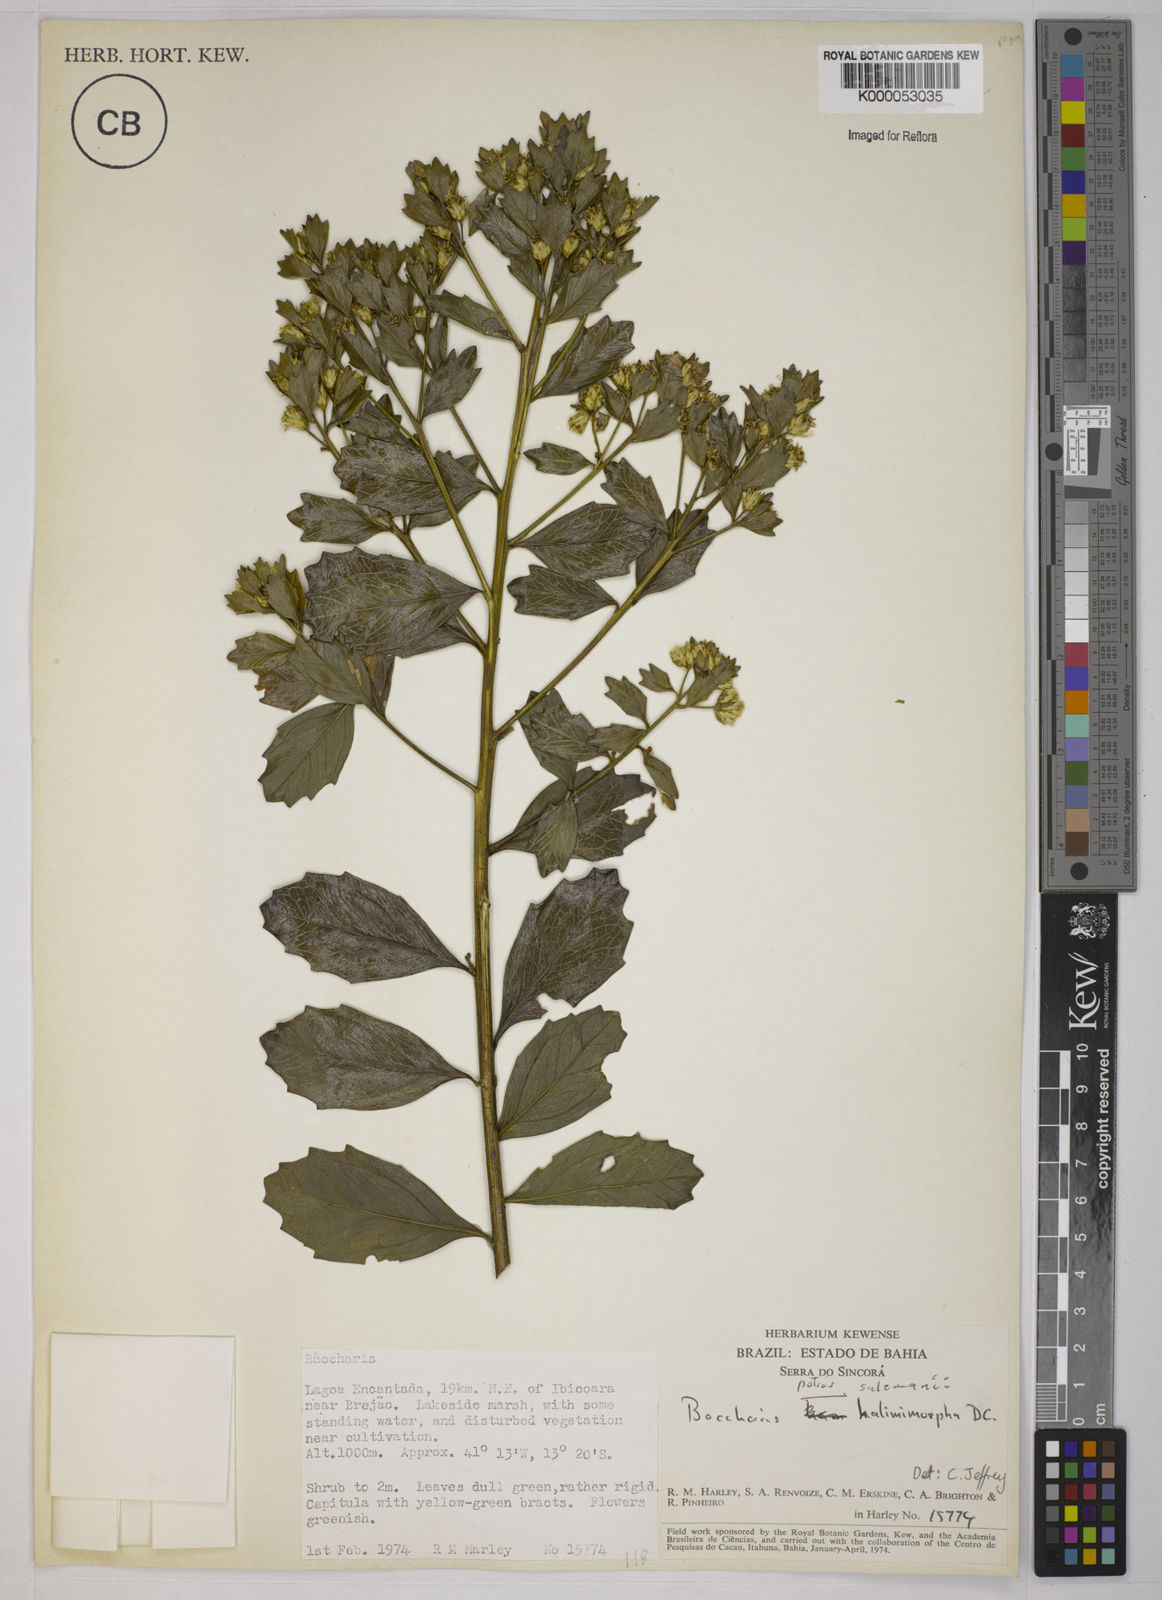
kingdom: Plantae
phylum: Tracheophyta
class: Magnoliopsida
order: Asterales
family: Asteraceae
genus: Baccharis
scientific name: Baccharis retusa
